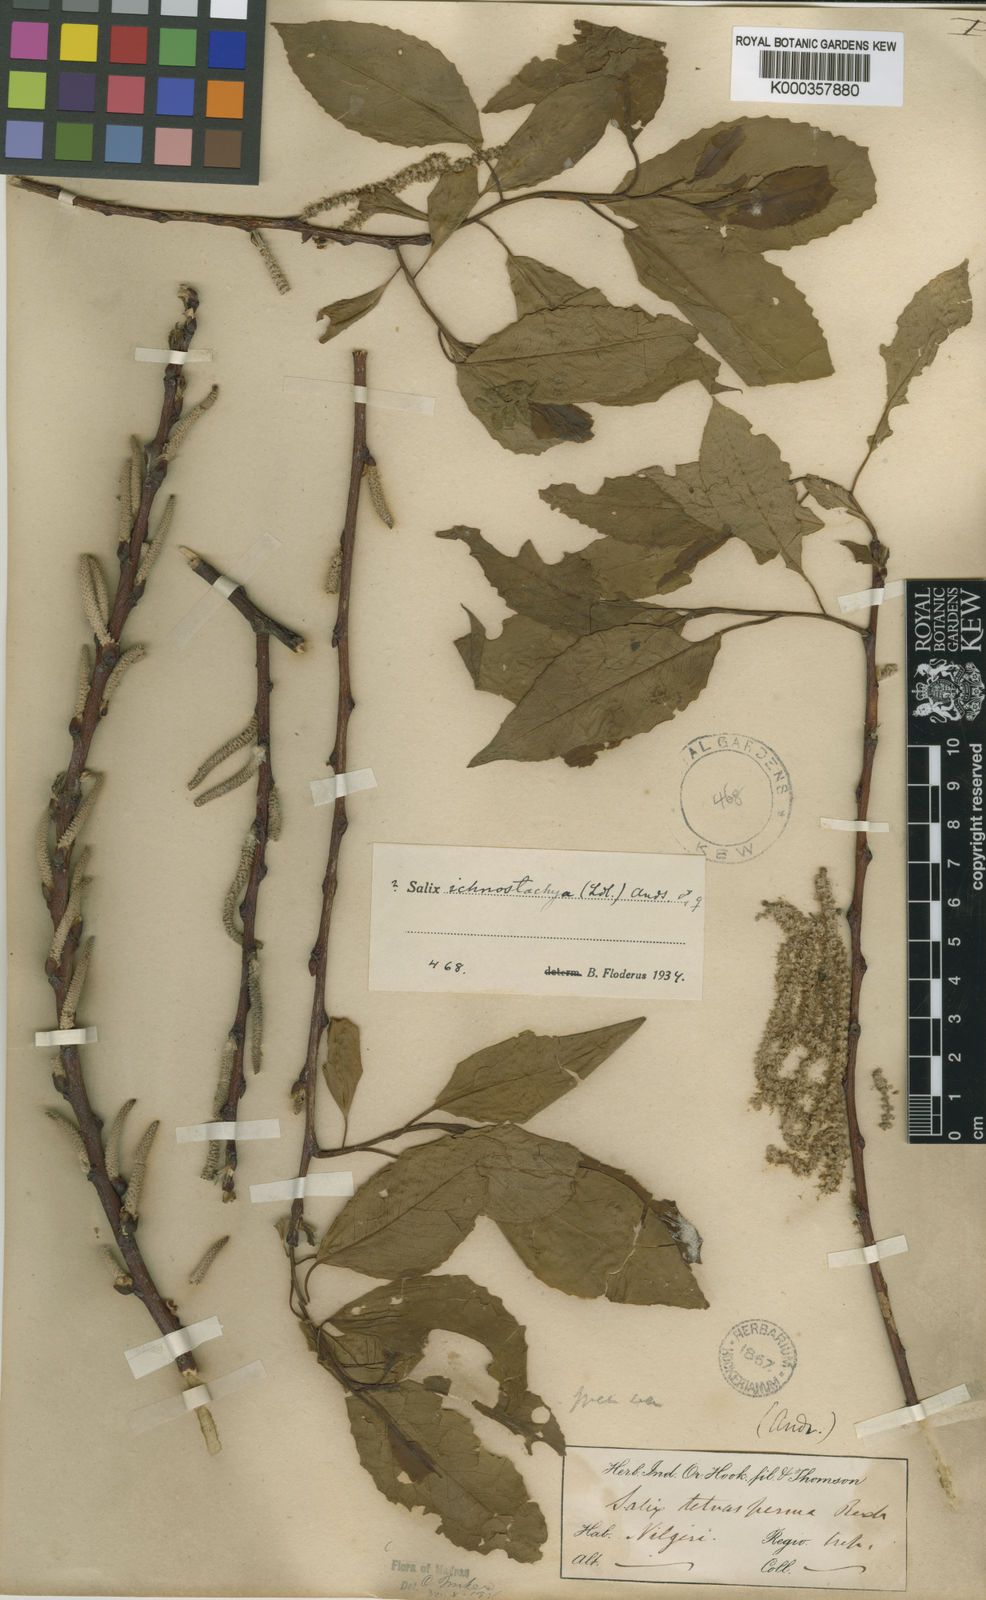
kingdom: Plantae
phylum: Tracheophyta
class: Magnoliopsida
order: Malpighiales
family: Salicaceae
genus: Salix
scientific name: Salix tetrasperma
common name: Indian willow
